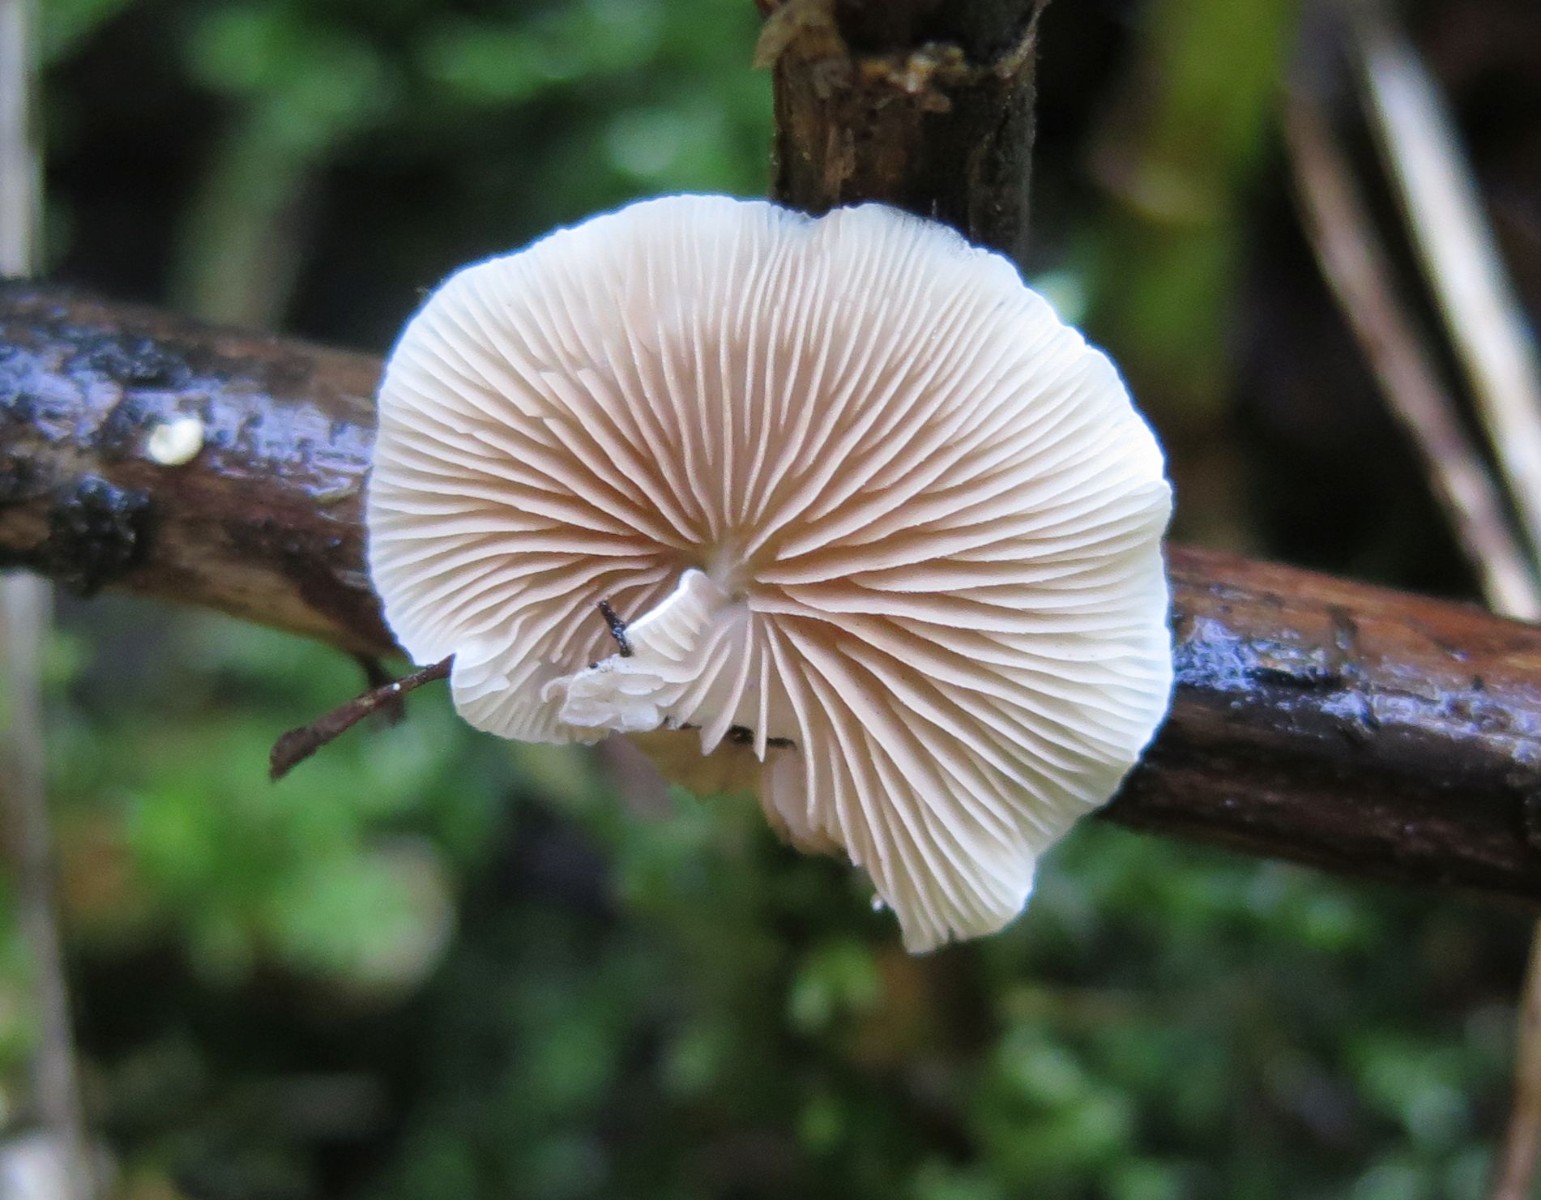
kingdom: Fungi
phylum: Basidiomycota
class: Agaricomycetes
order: Agaricales
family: Crepidotaceae
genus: Crepidotus
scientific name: Crepidotus luteolus
